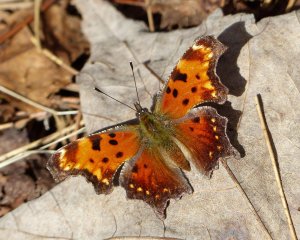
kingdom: Animalia
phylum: Arthropoda
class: Insecta
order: Lepidoptera
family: Nymphalidae
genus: Polygonia
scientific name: Polygonia progne
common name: Gray Comma
